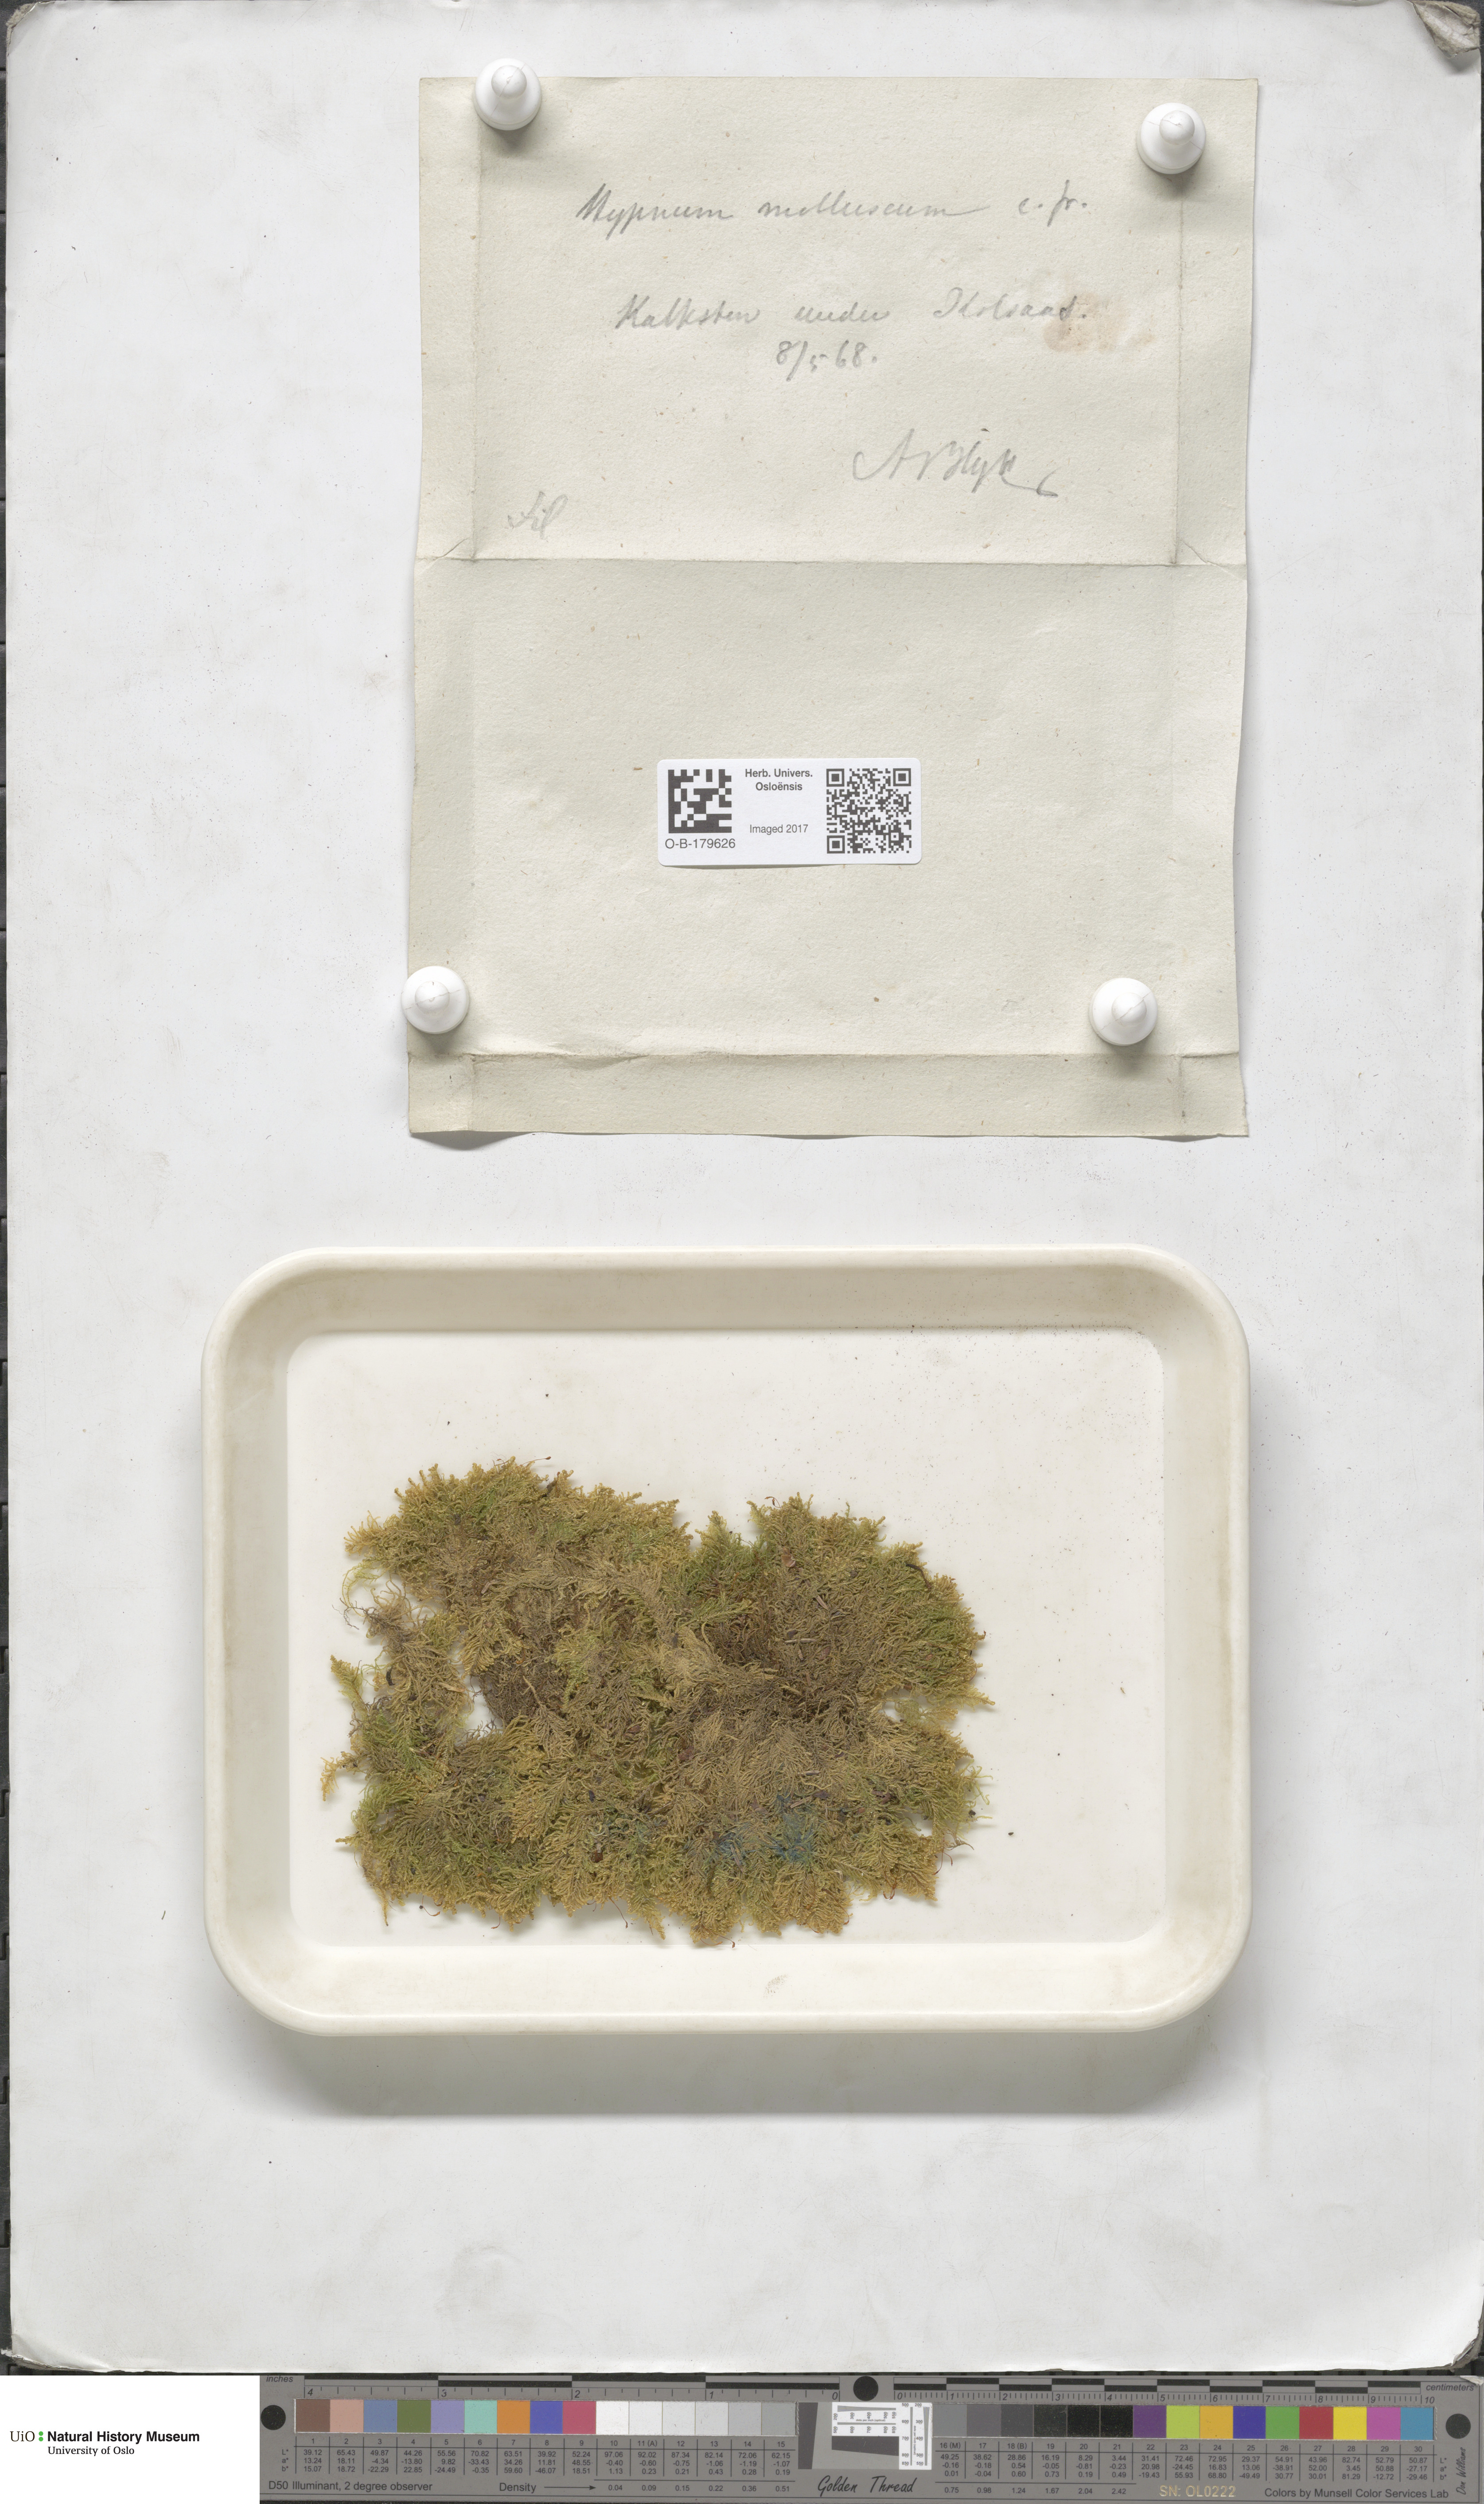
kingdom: Plantae
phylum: Bryophyta
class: Bryopsida
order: Hypnales
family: Myuriaceae
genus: Ctenidium
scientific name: Ctenidium molluscum
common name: Chalk comb-moss
